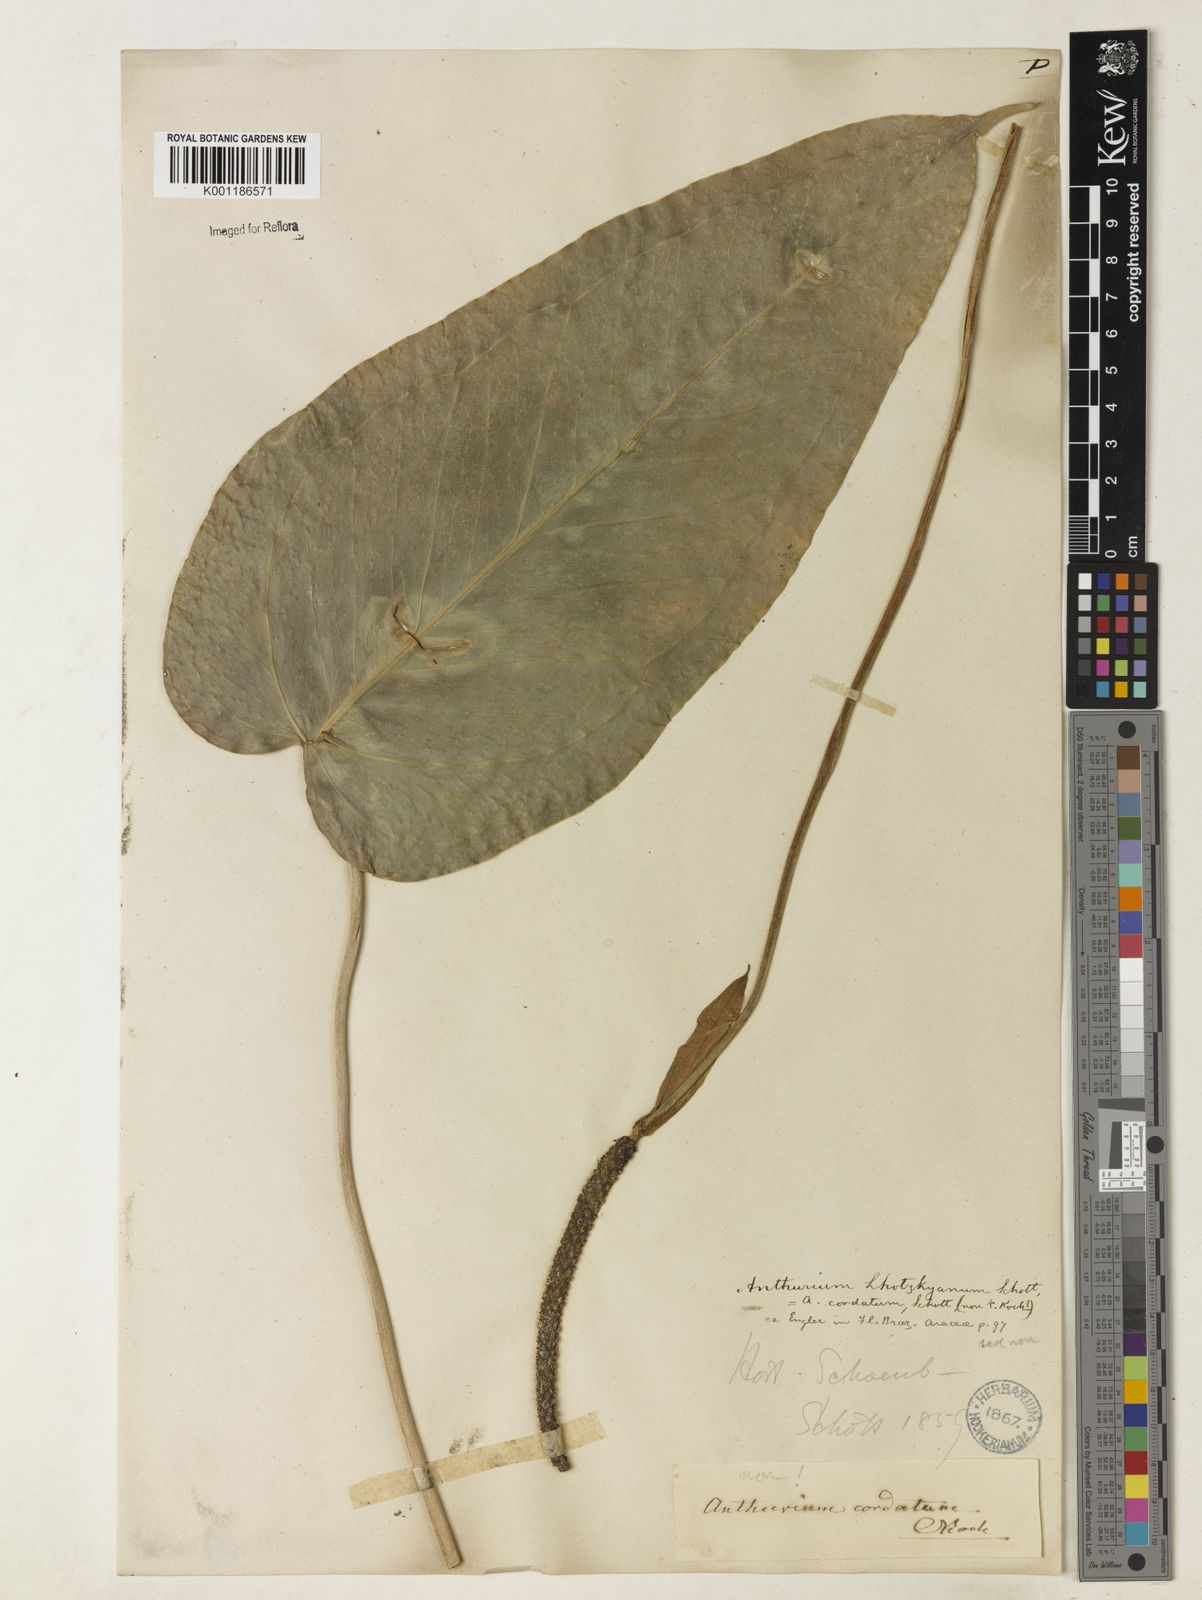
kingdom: Plantae
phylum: Tracheophyta
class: Liliopsida
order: Alismatales
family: Araceae
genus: Anthurium
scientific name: Anthurium augustinum
